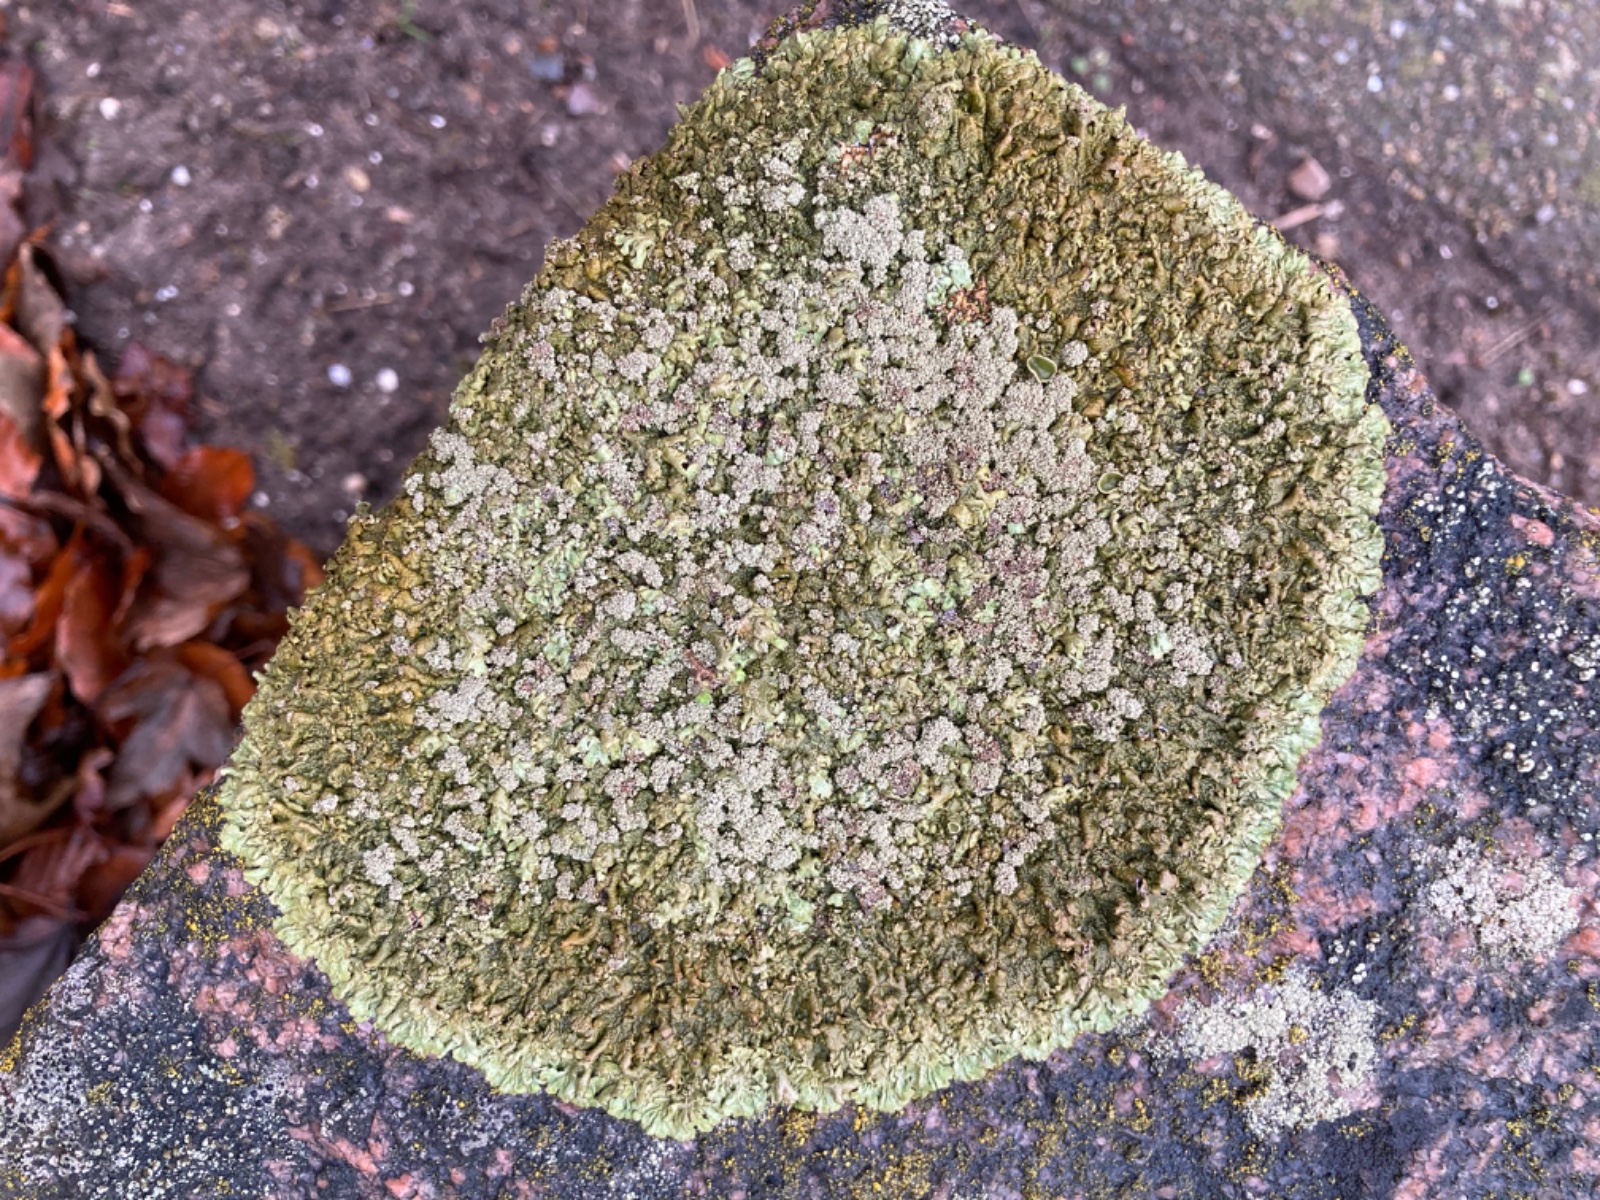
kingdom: Fungi
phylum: Ascomycota
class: Lecanoromycetes
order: Lecanorales
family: Parmeliaceae
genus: Xanthoparmelia
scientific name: Xanthoparmelia loxodes
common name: knudret skållav
